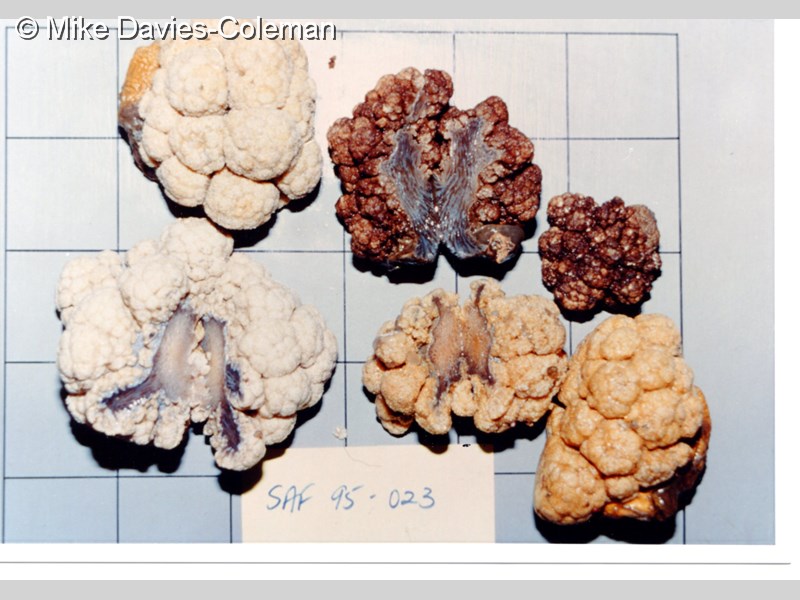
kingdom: Animalia
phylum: Cnidaria
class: Anthozoa
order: Malacalcyonacea
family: Capnellidae
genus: Eunephthya
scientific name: Eunephthya thyrsoidea
